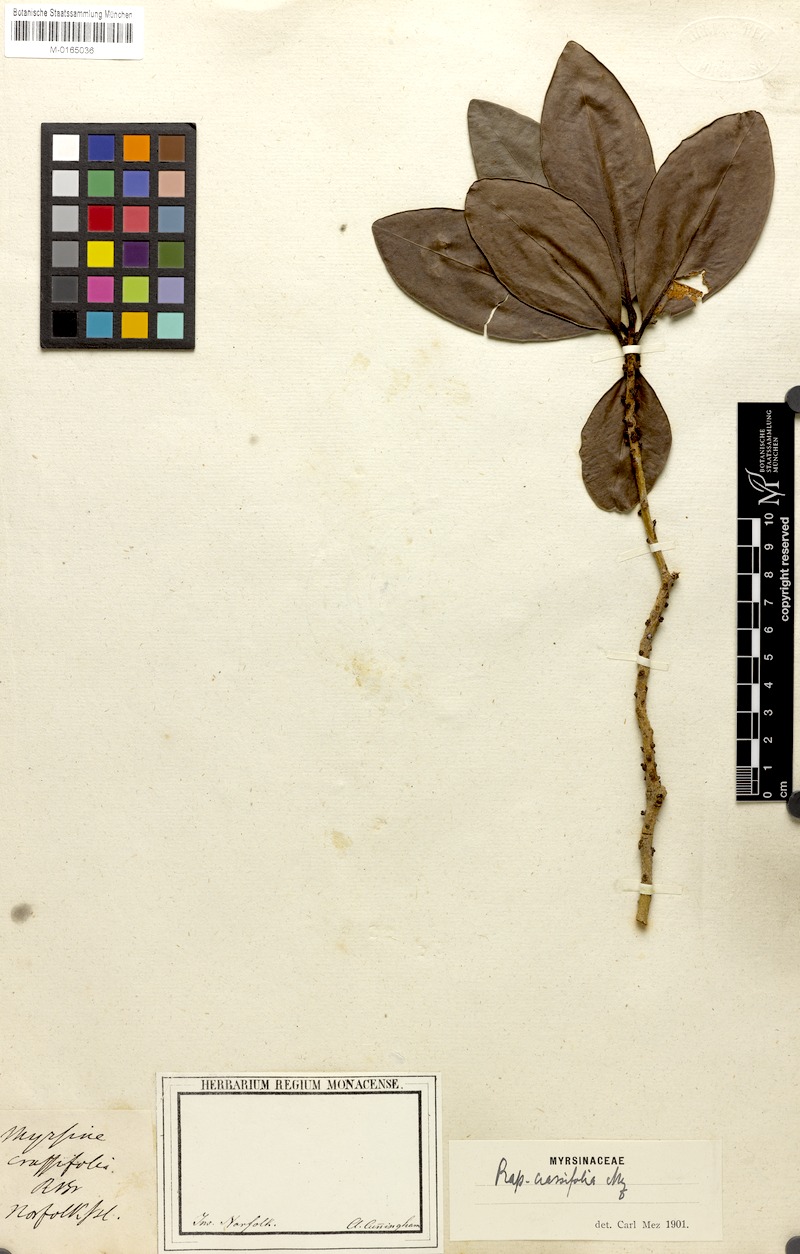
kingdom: Plantae
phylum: Tracheophyta
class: Magnoliopsida
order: Ericales
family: Primulaceae
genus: Myrsine
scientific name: Myrsine crassifolia
